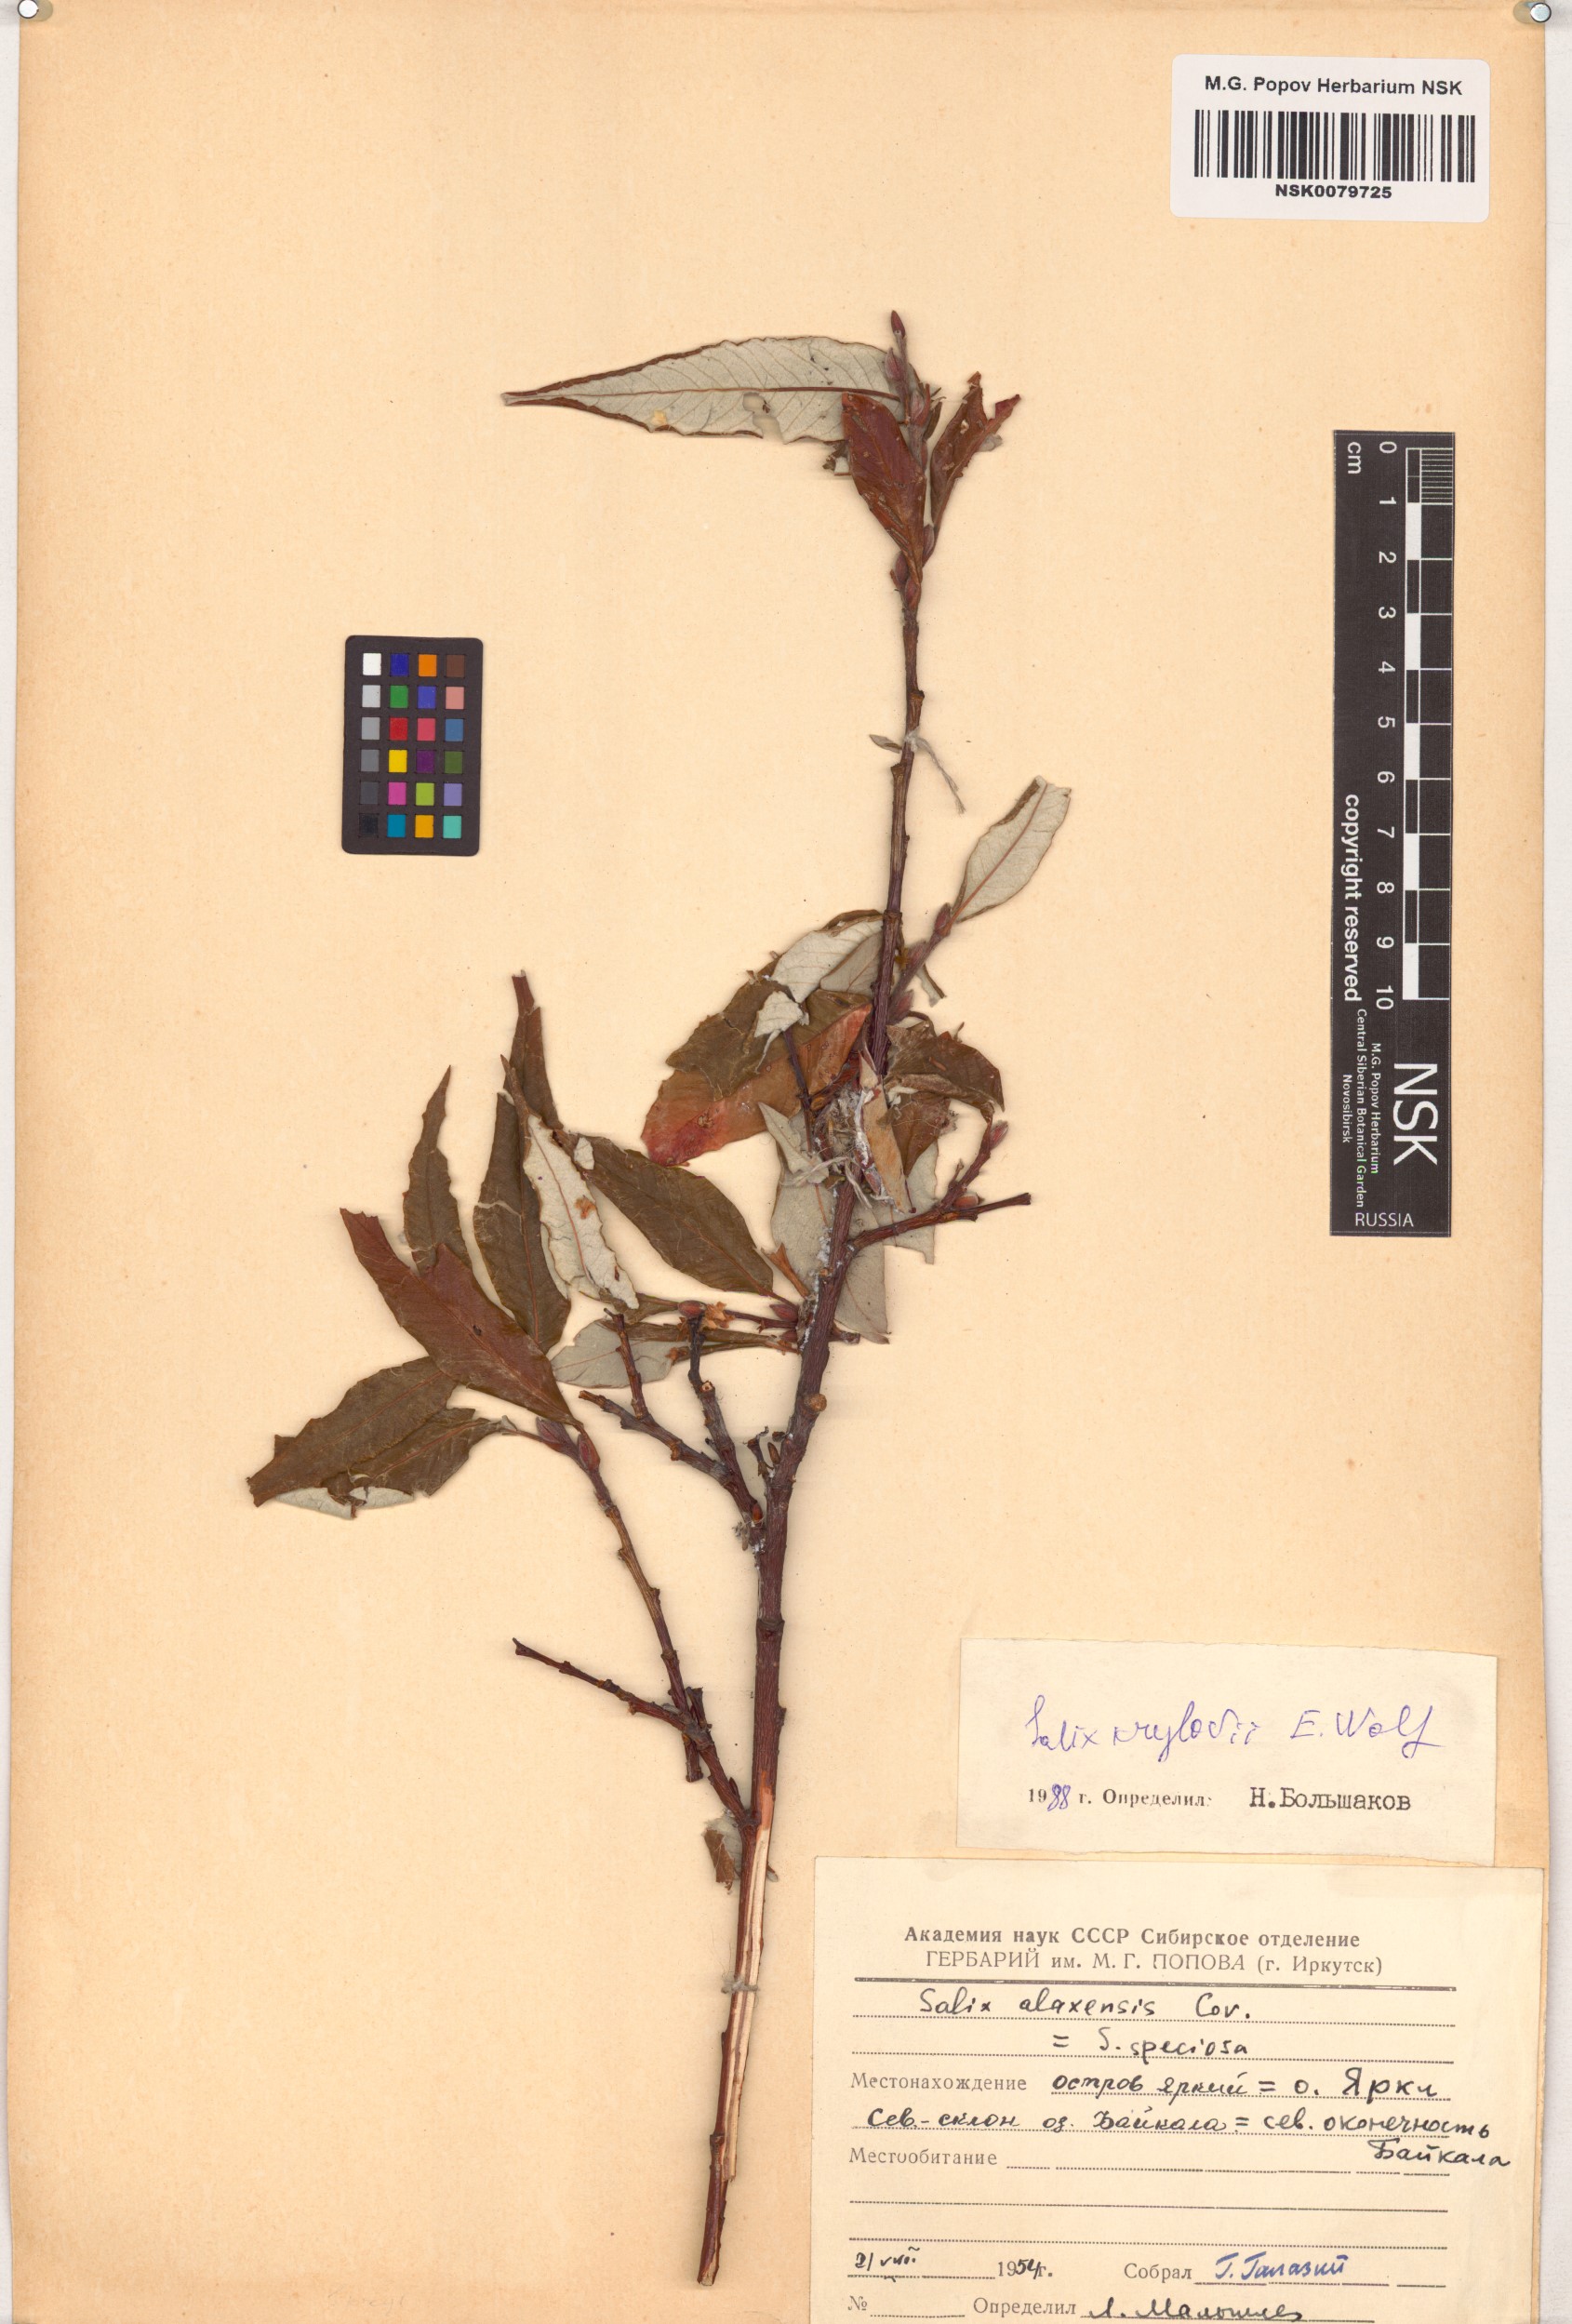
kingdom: Plantae
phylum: Tracheophyta
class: Magnoliopsida
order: Malpighiales
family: Salicaceae
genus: Salix
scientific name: Salix krylovii
